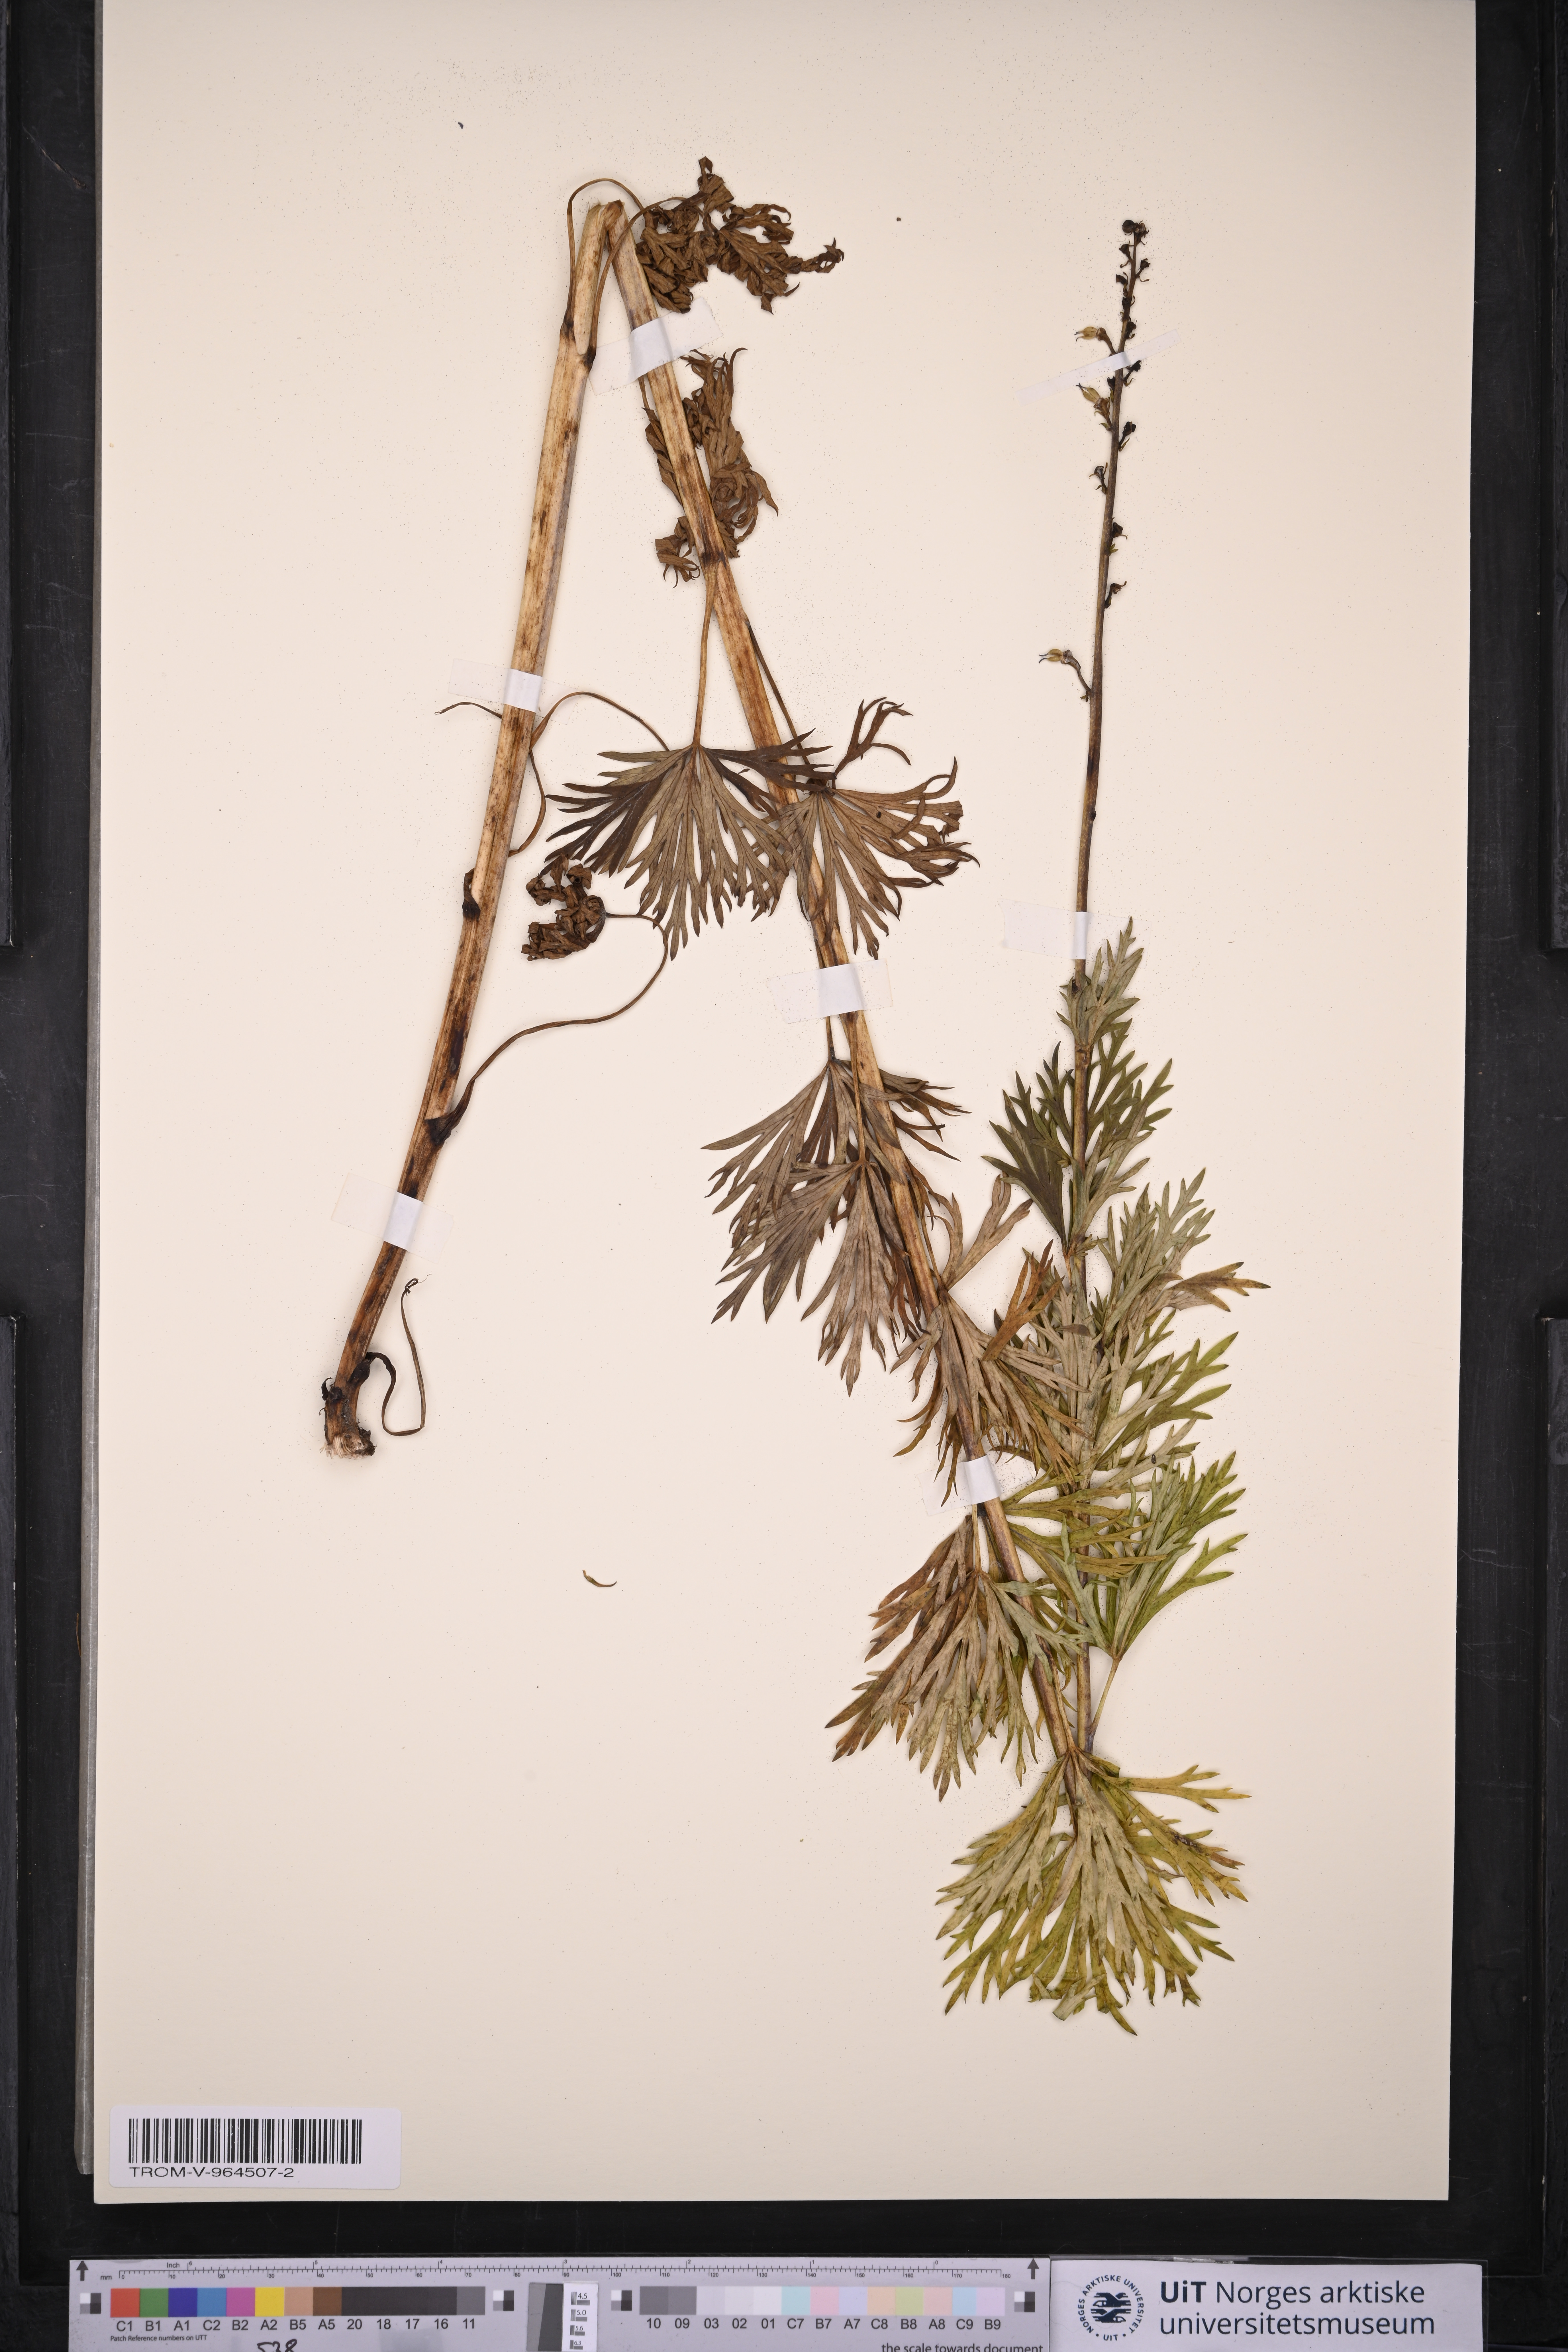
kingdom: Plantae
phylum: Tracheophyta
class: Magnoliopsida
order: Ranunculales
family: Ranunculaceae
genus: Aconitum
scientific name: Aconitum napellus
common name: Garden monkshood
